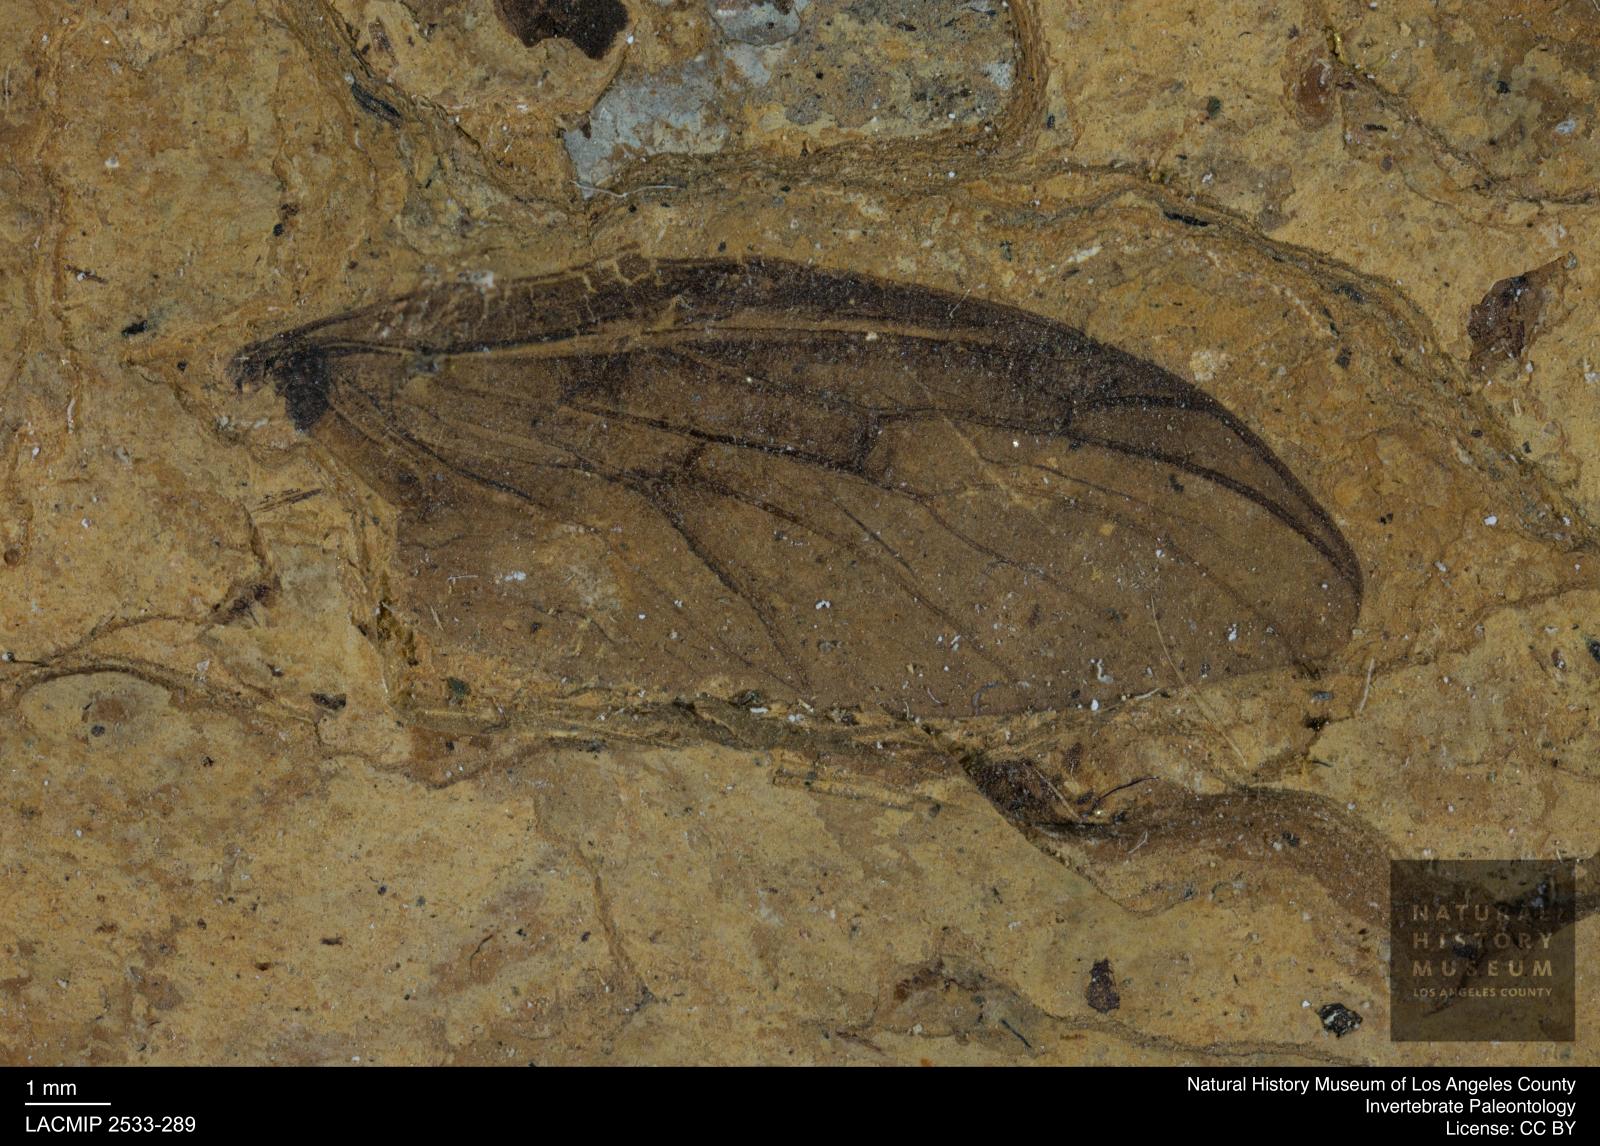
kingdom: Animalia
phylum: Arthropoda
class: Insecta
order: Diptera
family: Bibionidae
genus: Plecia
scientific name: Plecia dubia
